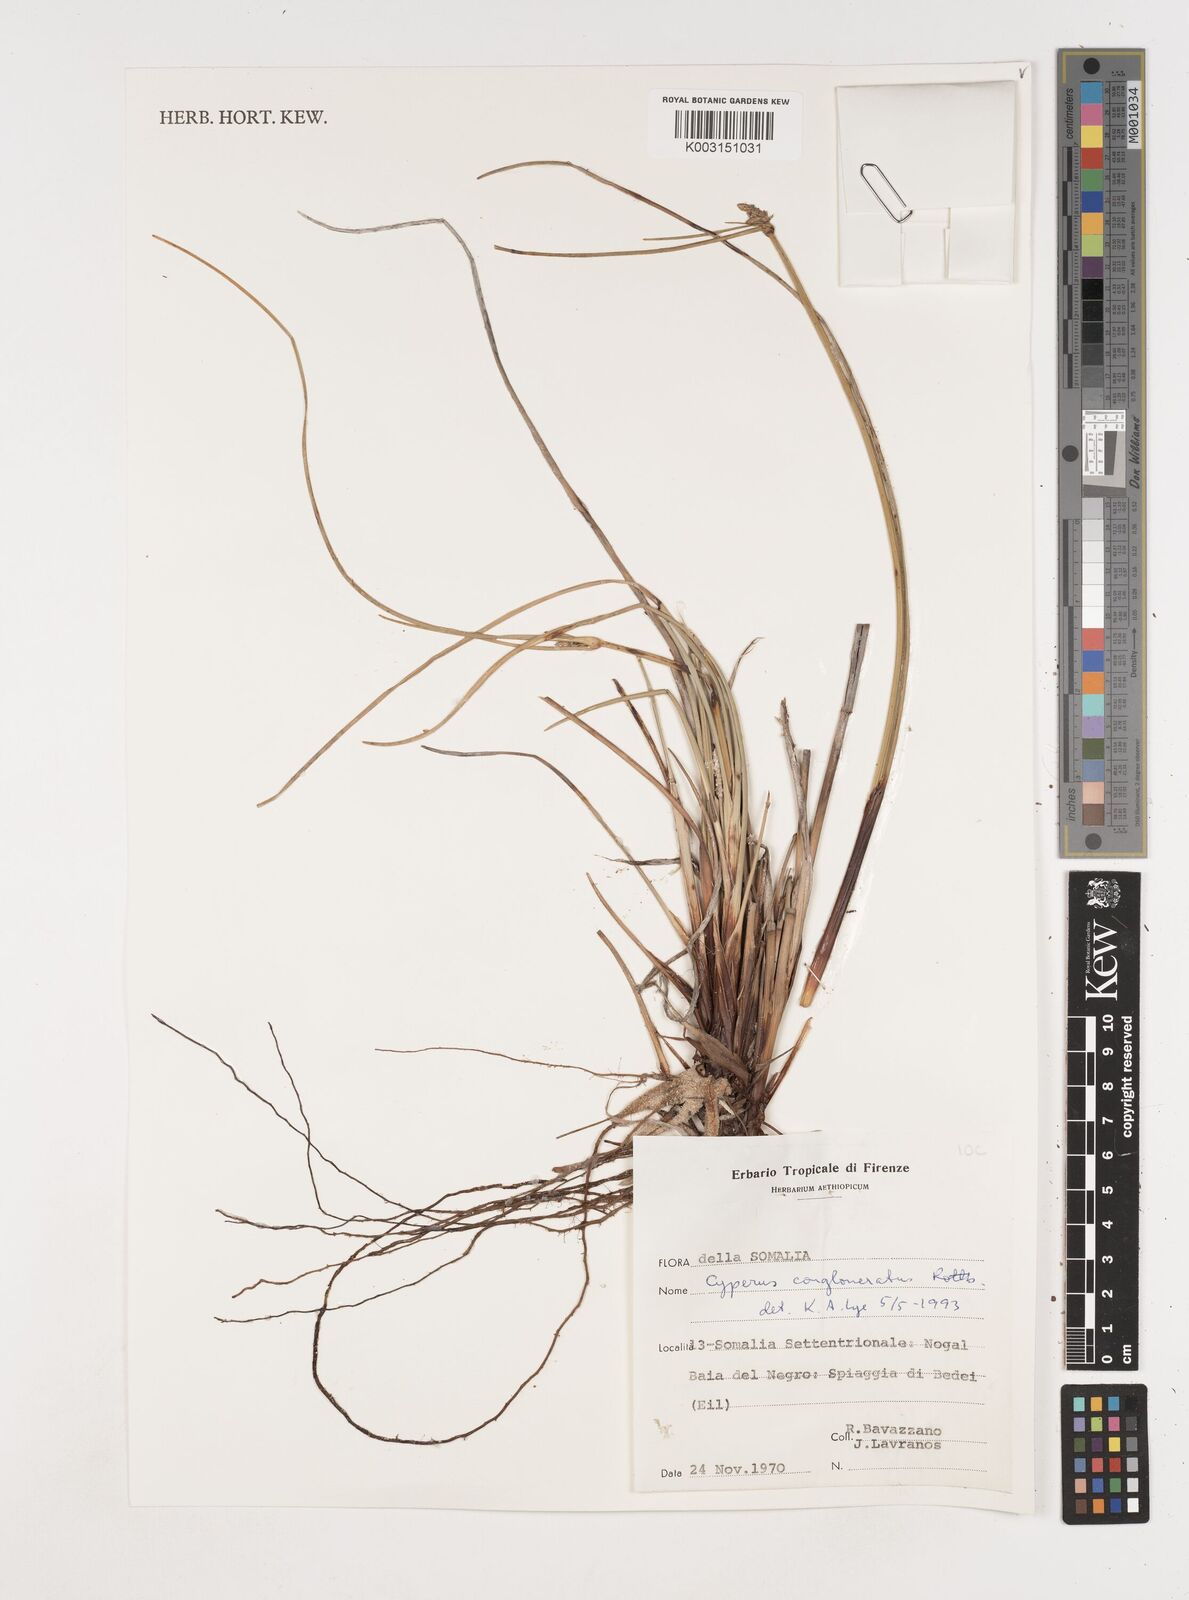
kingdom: Plantae
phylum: Tracheophyta
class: Liliopsida
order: Poales
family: Cyperaceae
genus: Cyperus
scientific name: Cyperus conglomeratus
